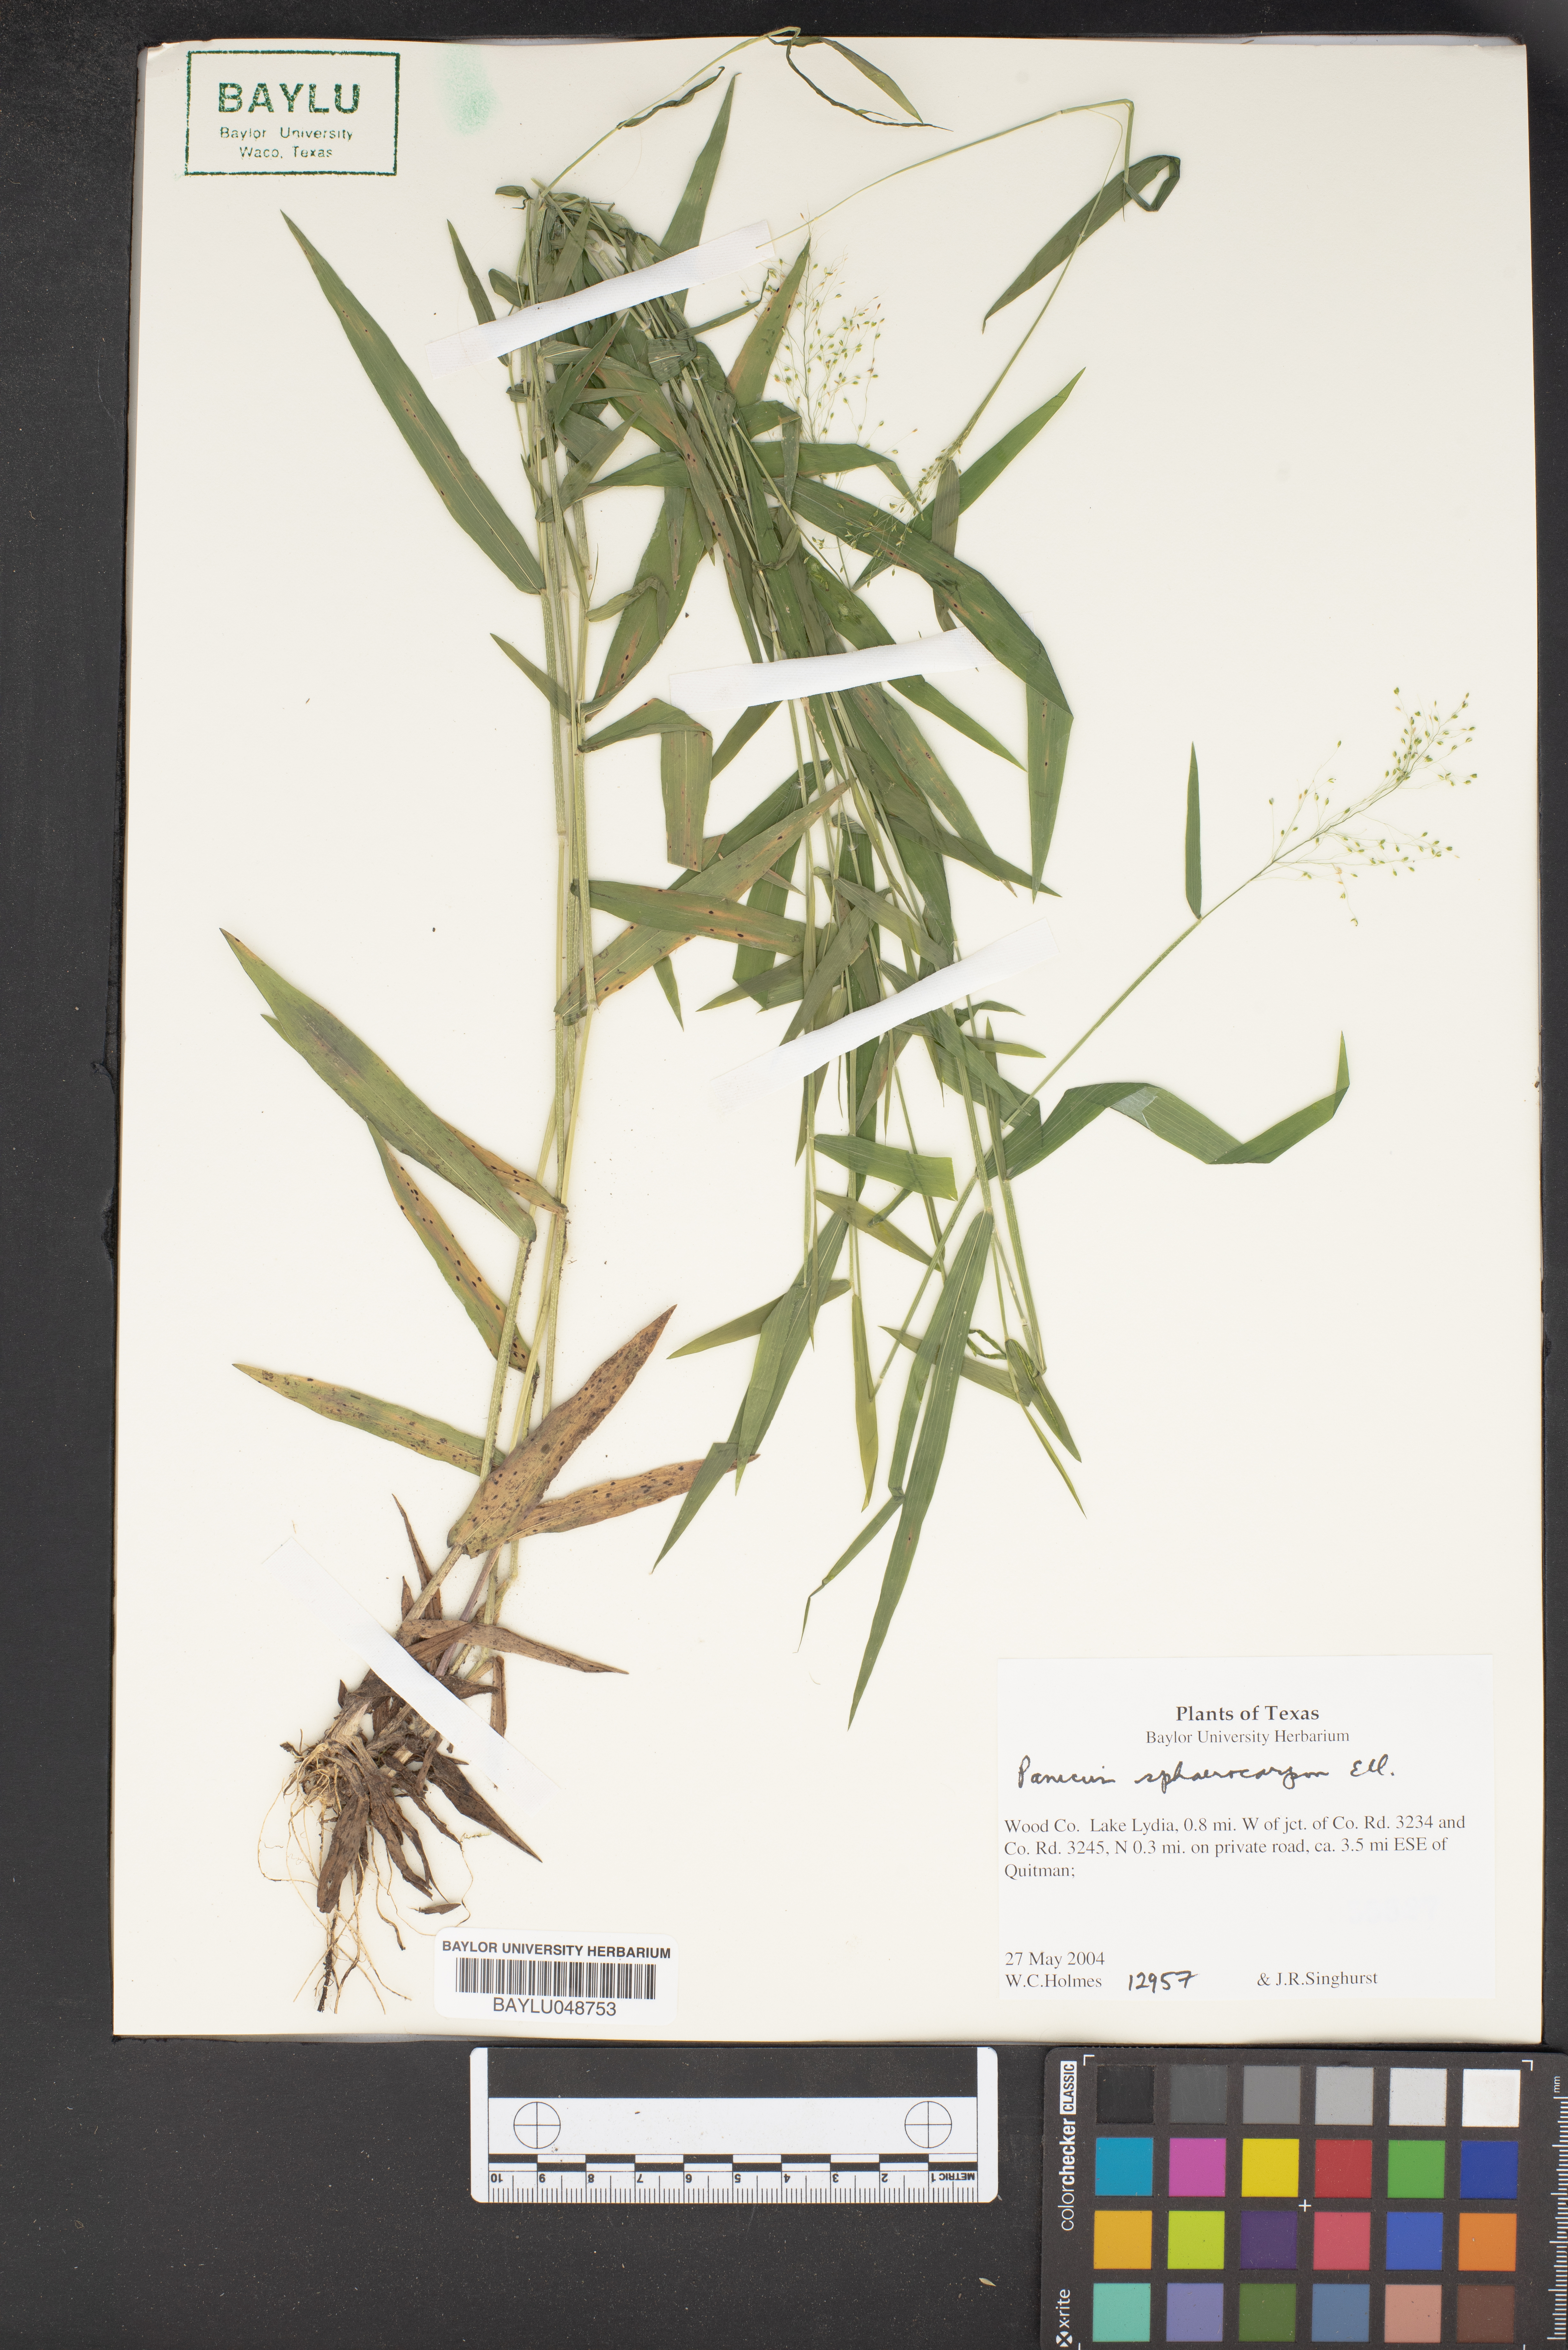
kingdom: Plantae
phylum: Tracheophyta
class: Liliopsida
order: Poales
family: Poaceae
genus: Setaria
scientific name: Setaria tenax
